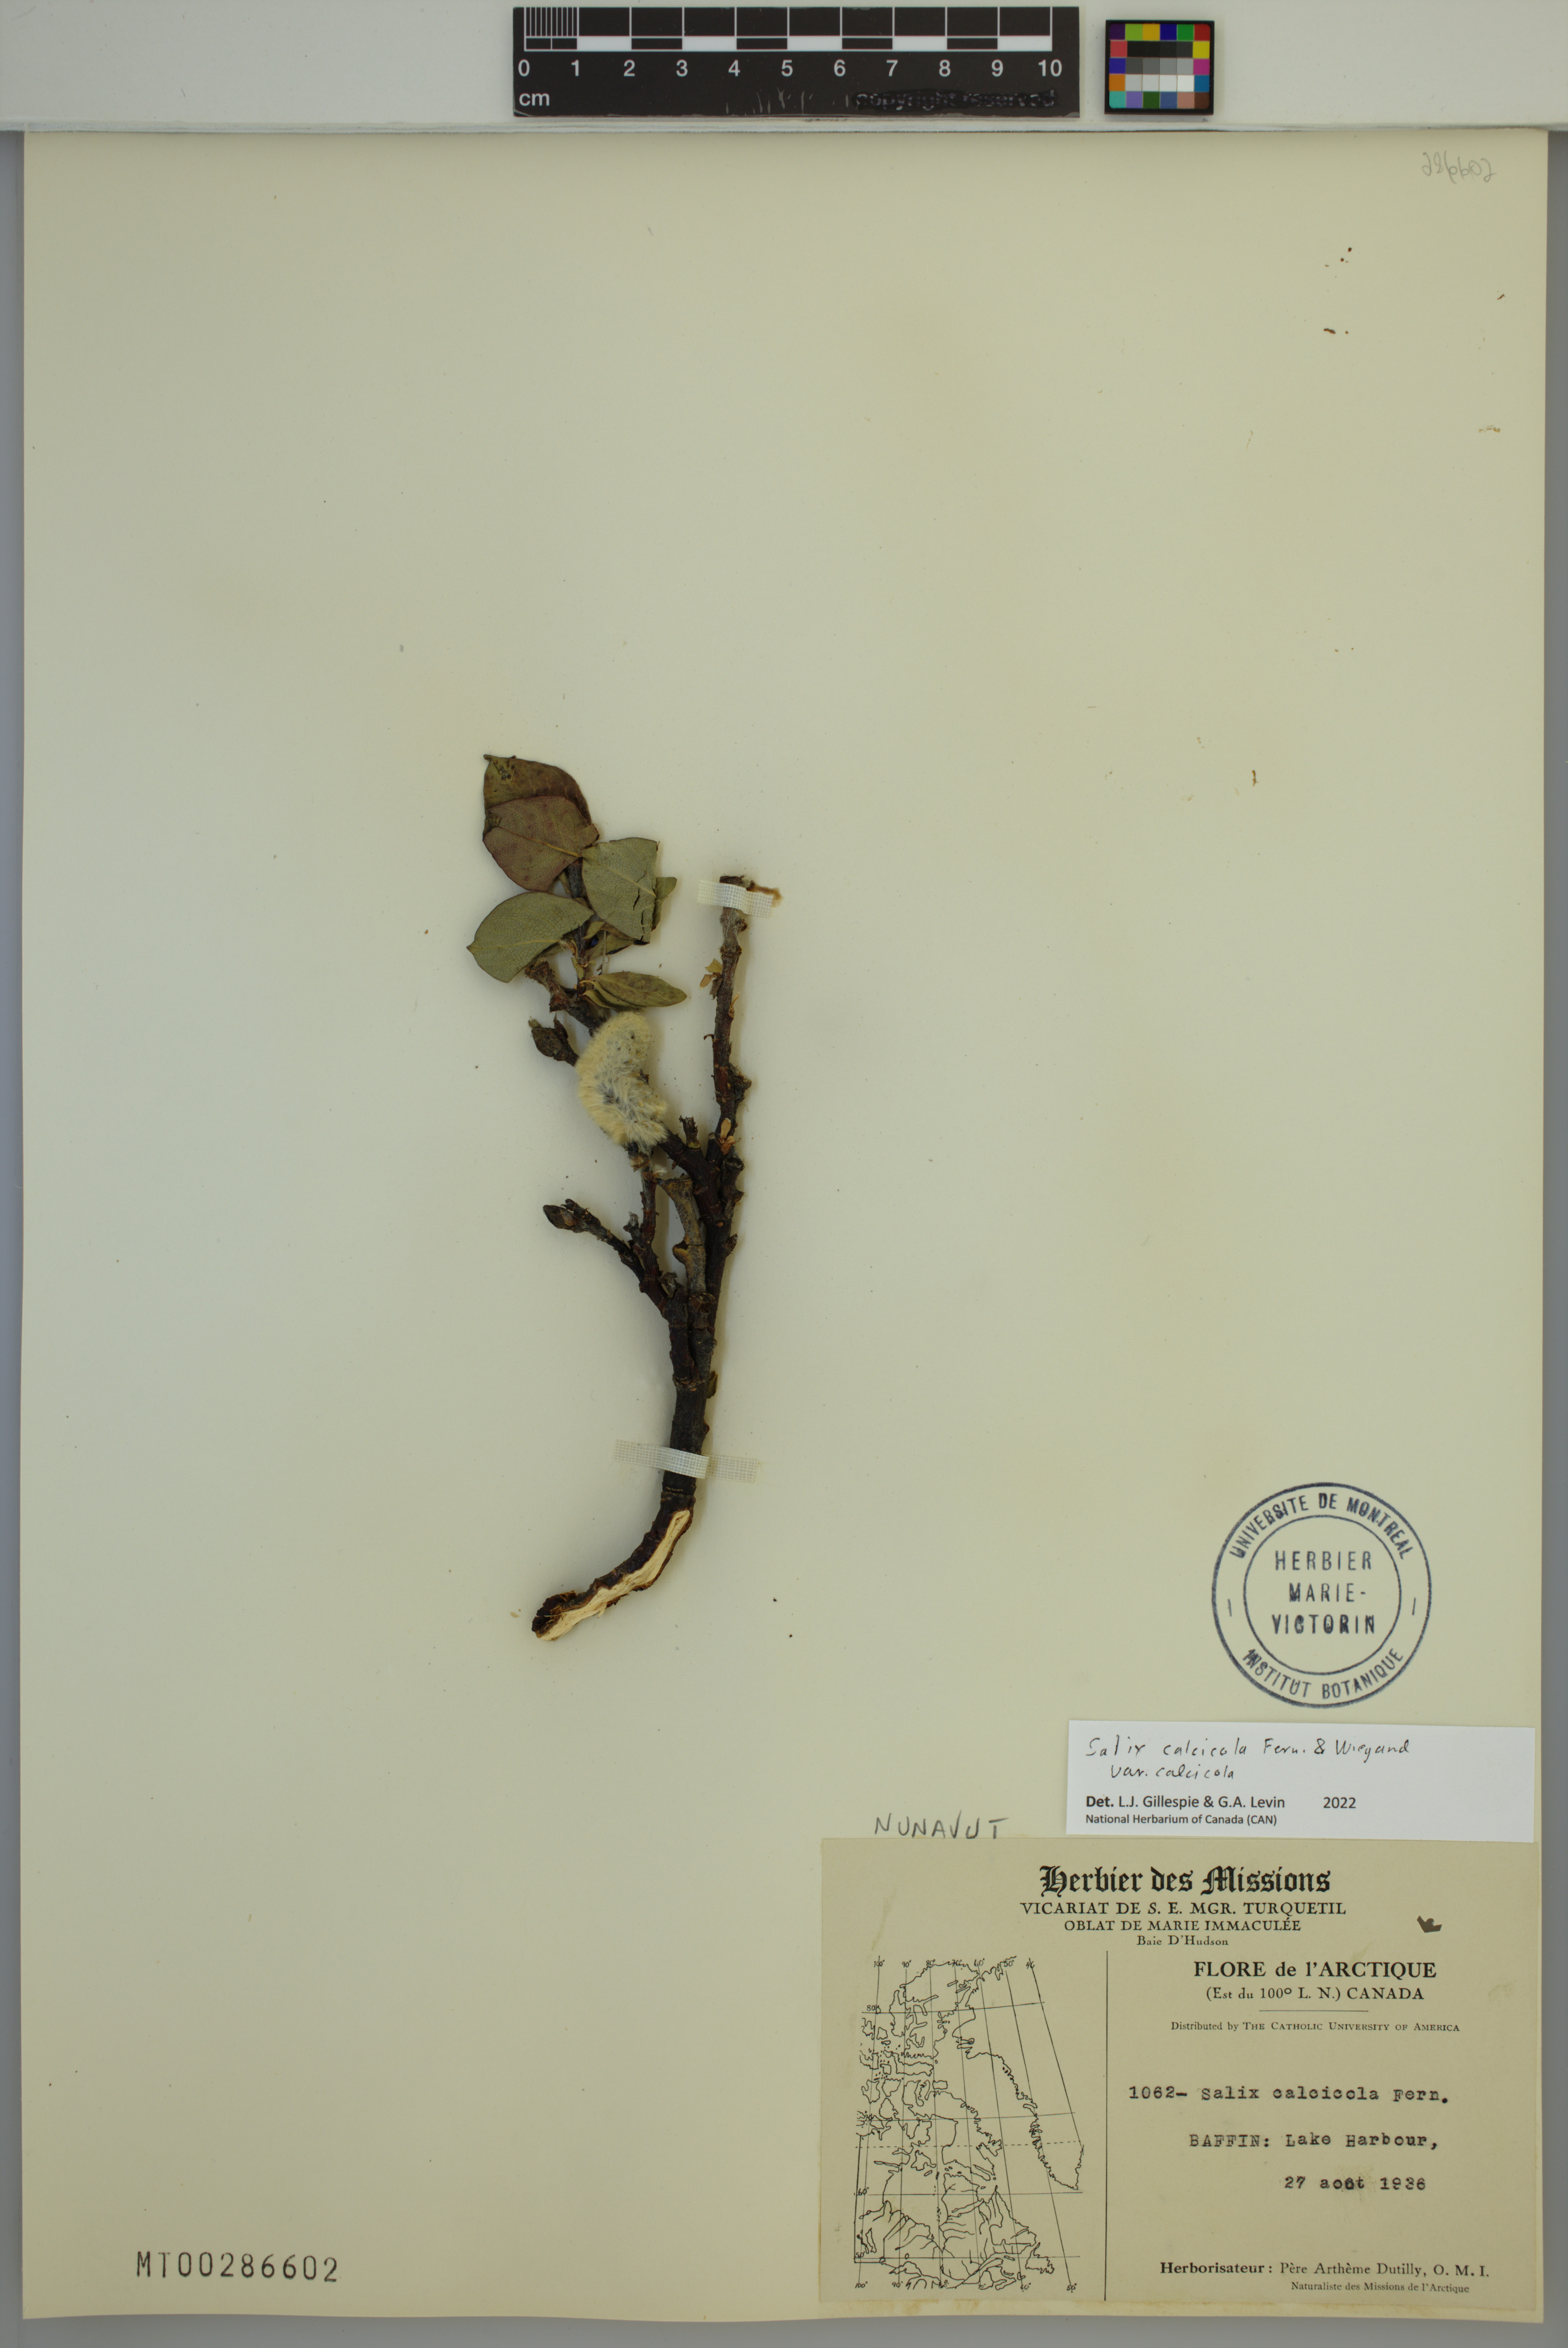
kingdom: Plantae
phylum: Tracheophyta
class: Magnoliopsida
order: Malpighiales
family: Salicaceae
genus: Salix
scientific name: Salix calcicola
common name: Calcareous willow
